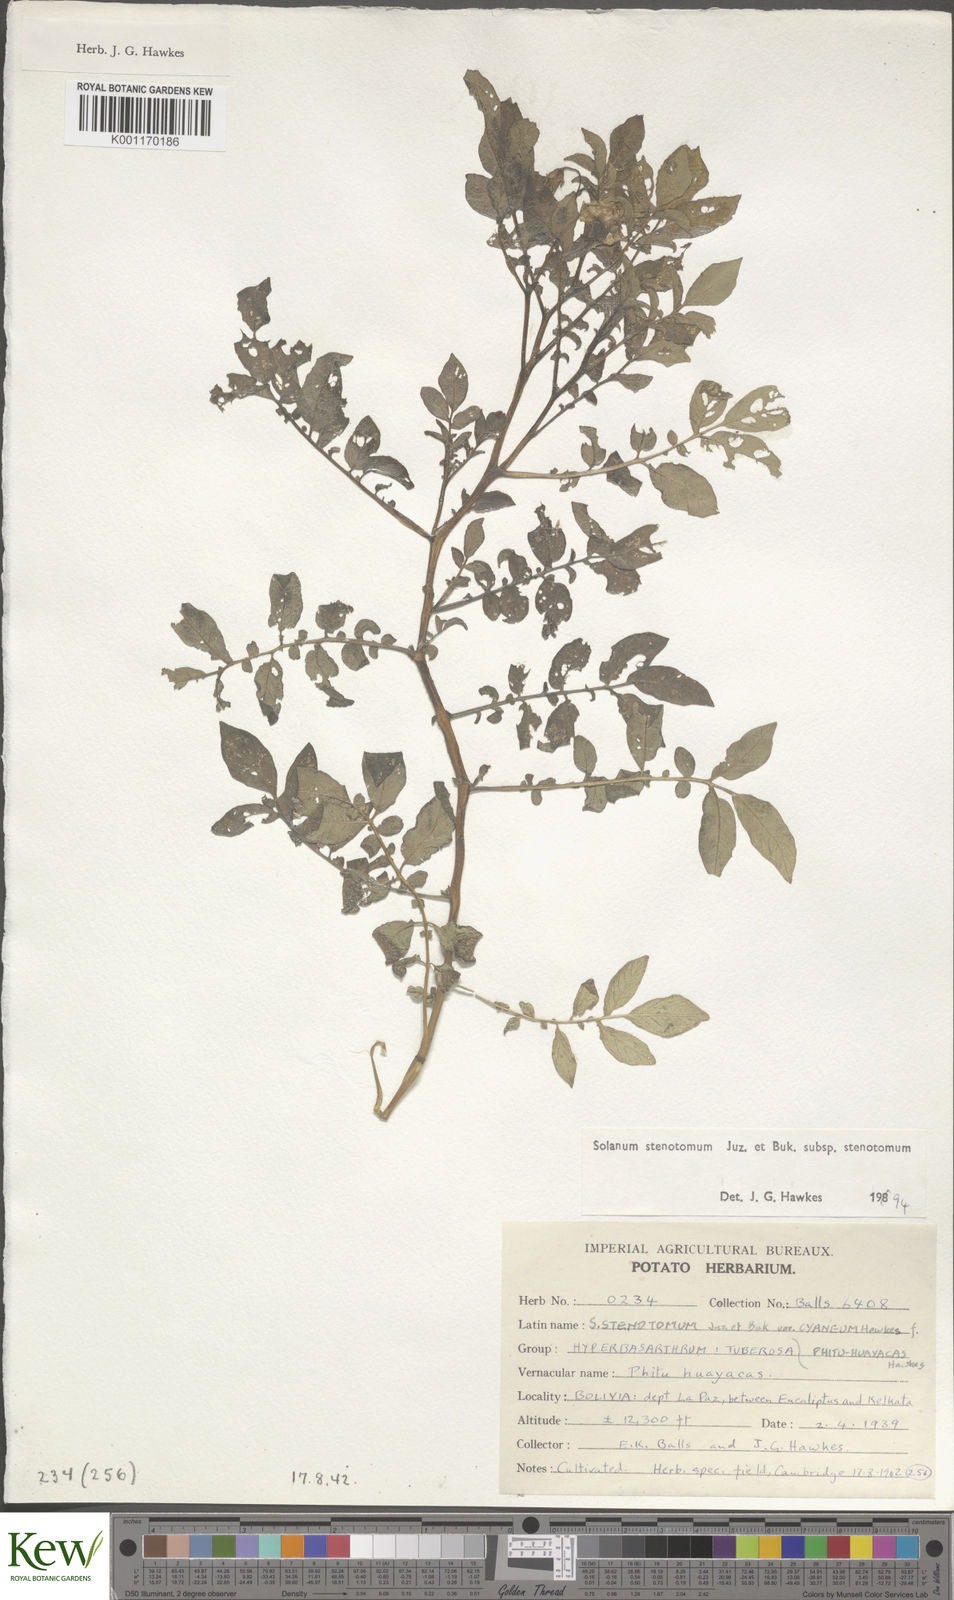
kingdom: Plantae
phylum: Tracheophyta
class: Magnoliopsida
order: Solanales
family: Solanaceae
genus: Solanum
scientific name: Solanum tuberosum
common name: Potato
